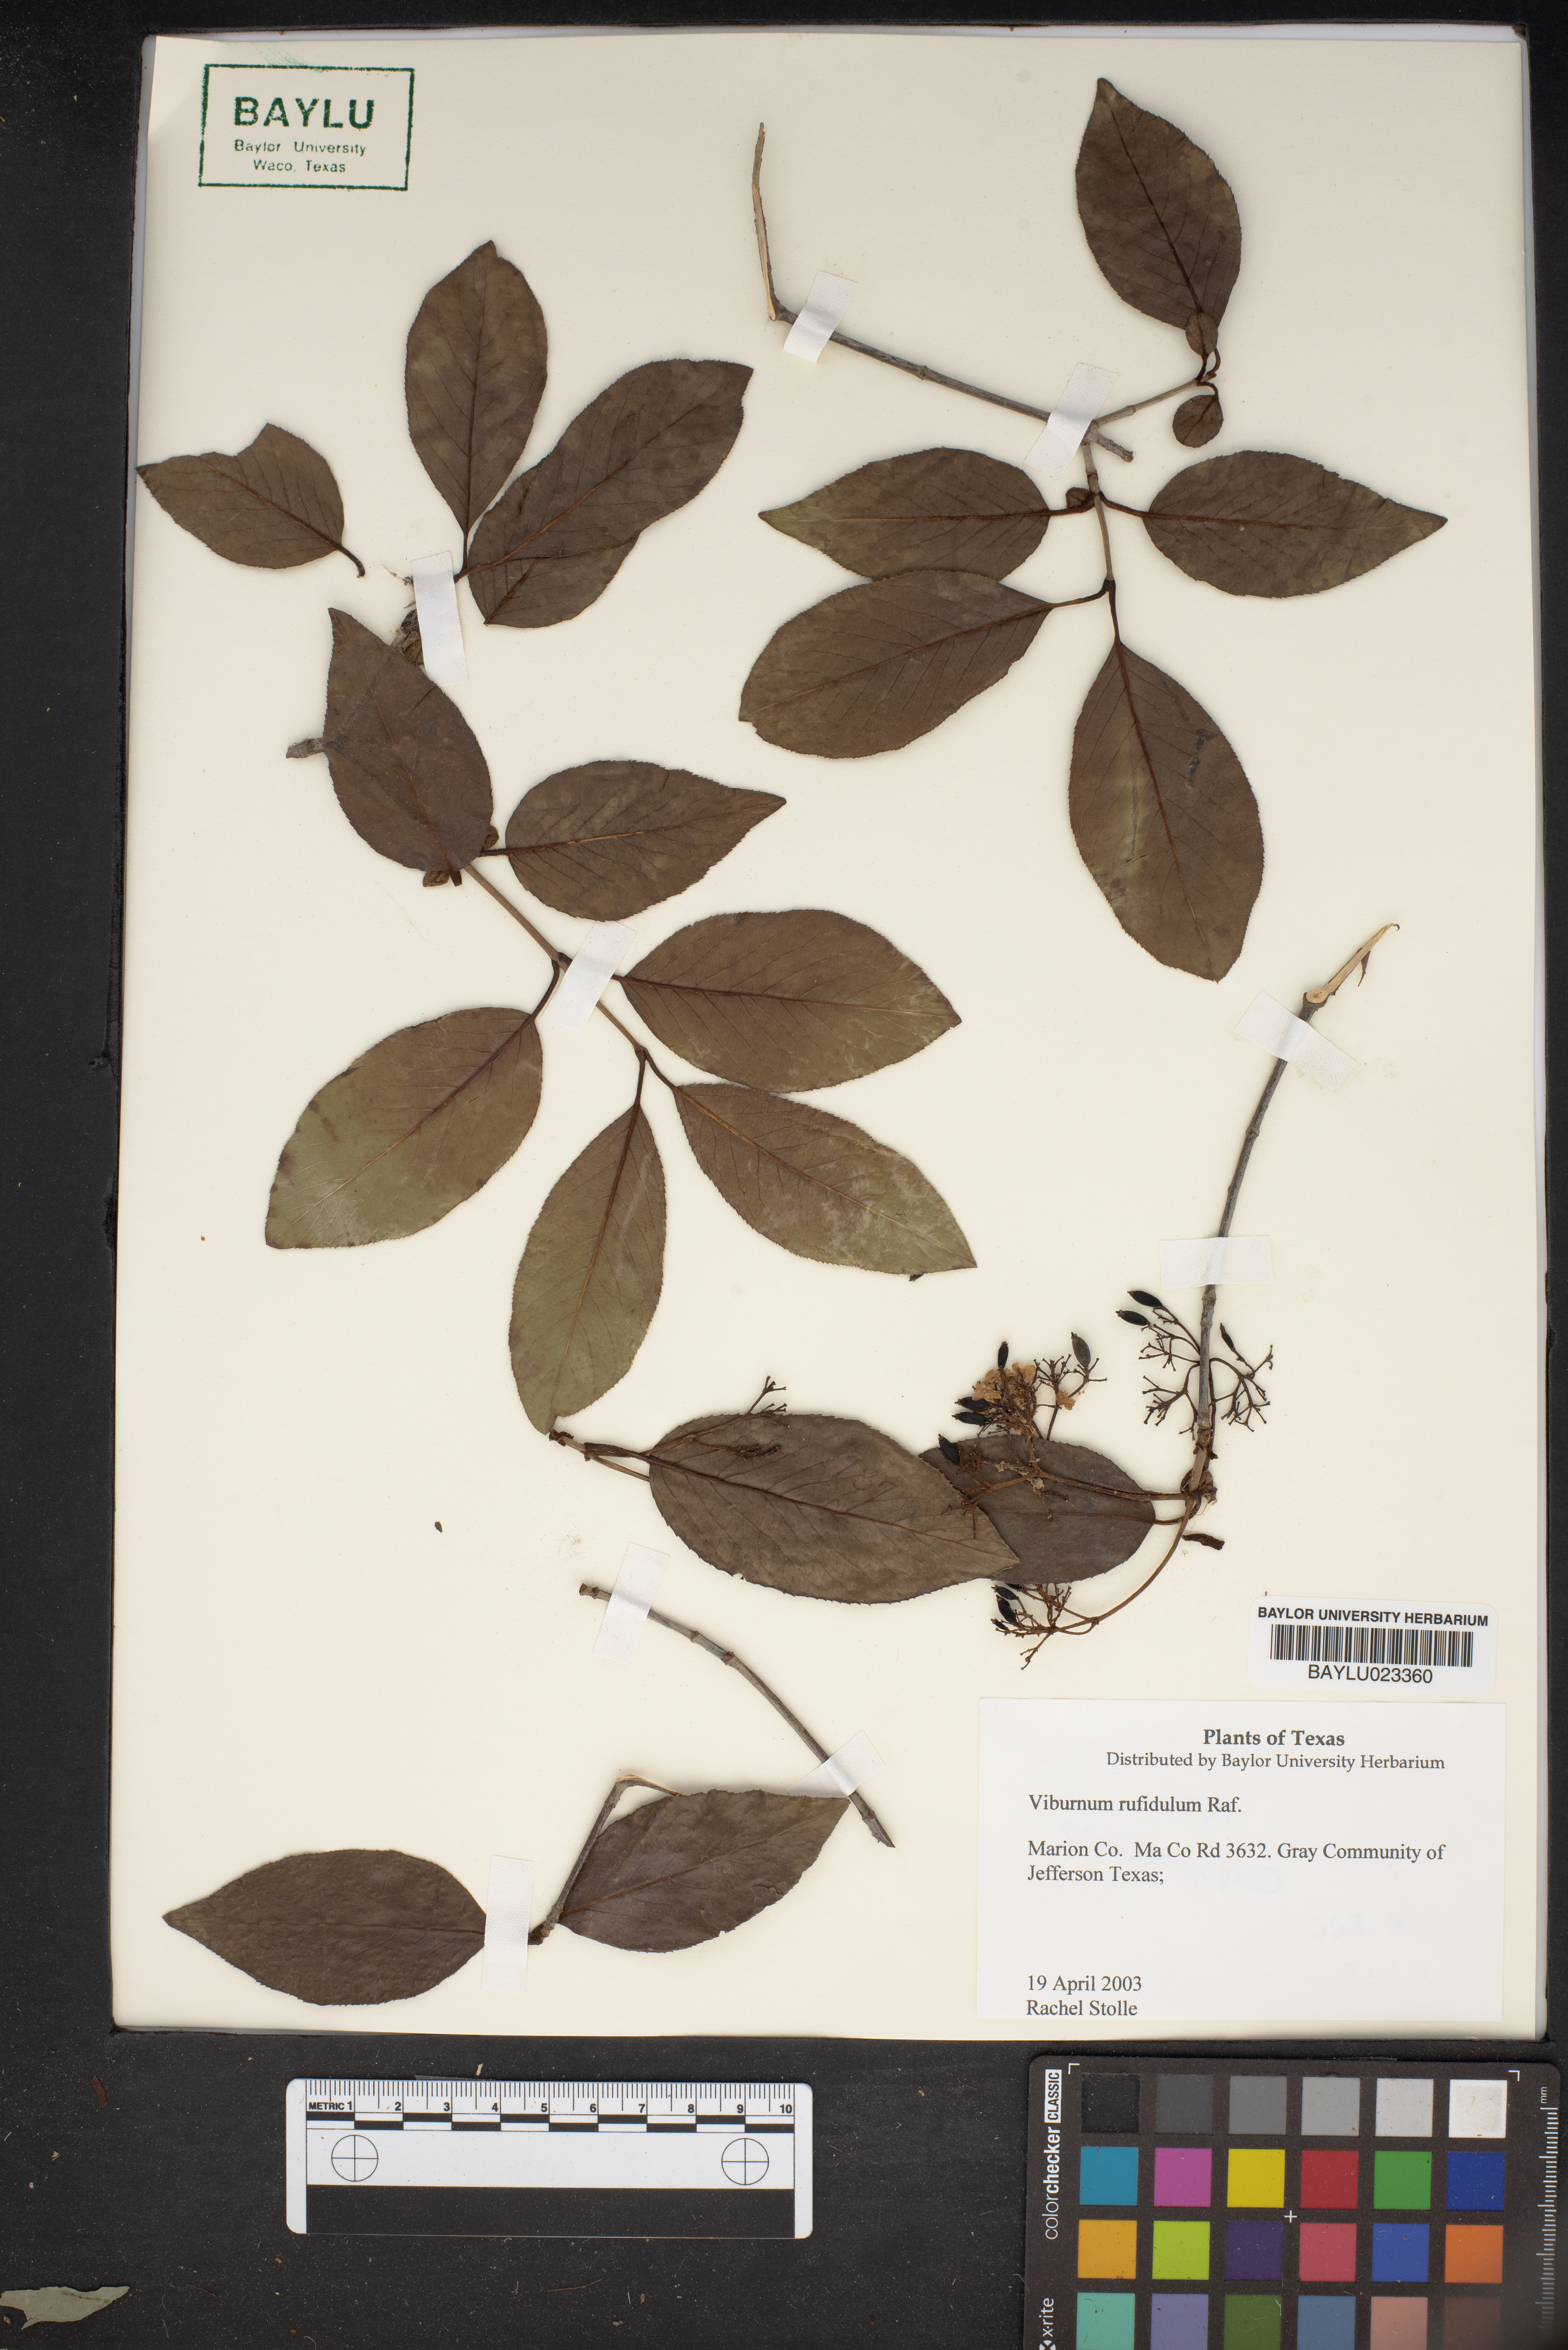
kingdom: Plantae
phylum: Tracheophyta
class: Magnoliopsida
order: Dipsacales
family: Viburnaceae
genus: Viburnum
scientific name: Viburnum rufidulum
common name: Blue haw
